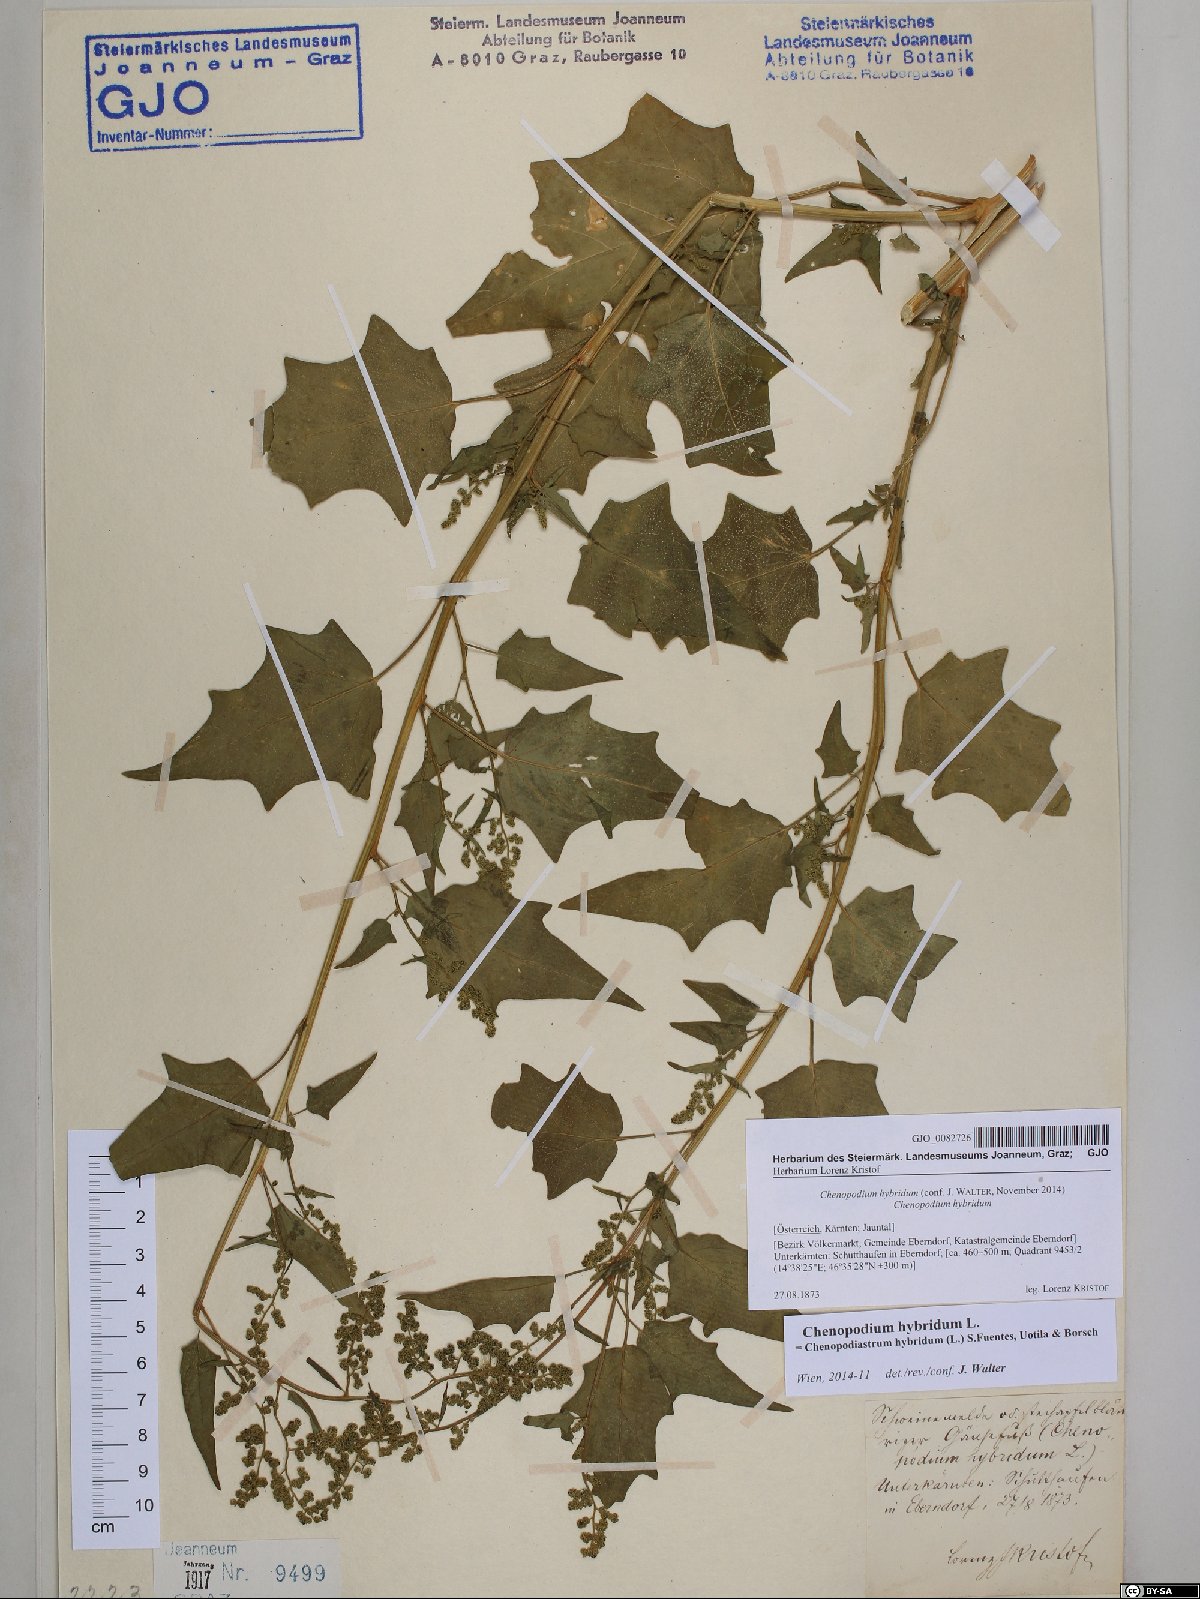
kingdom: Plantae
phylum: Tracheophyta
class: Magnoliopsida
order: Caryophyllales
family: Amaranthaceae
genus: Chenopodiastrum
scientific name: Chenopodiastrum hybridum
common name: Mapleleaf goosefoot
